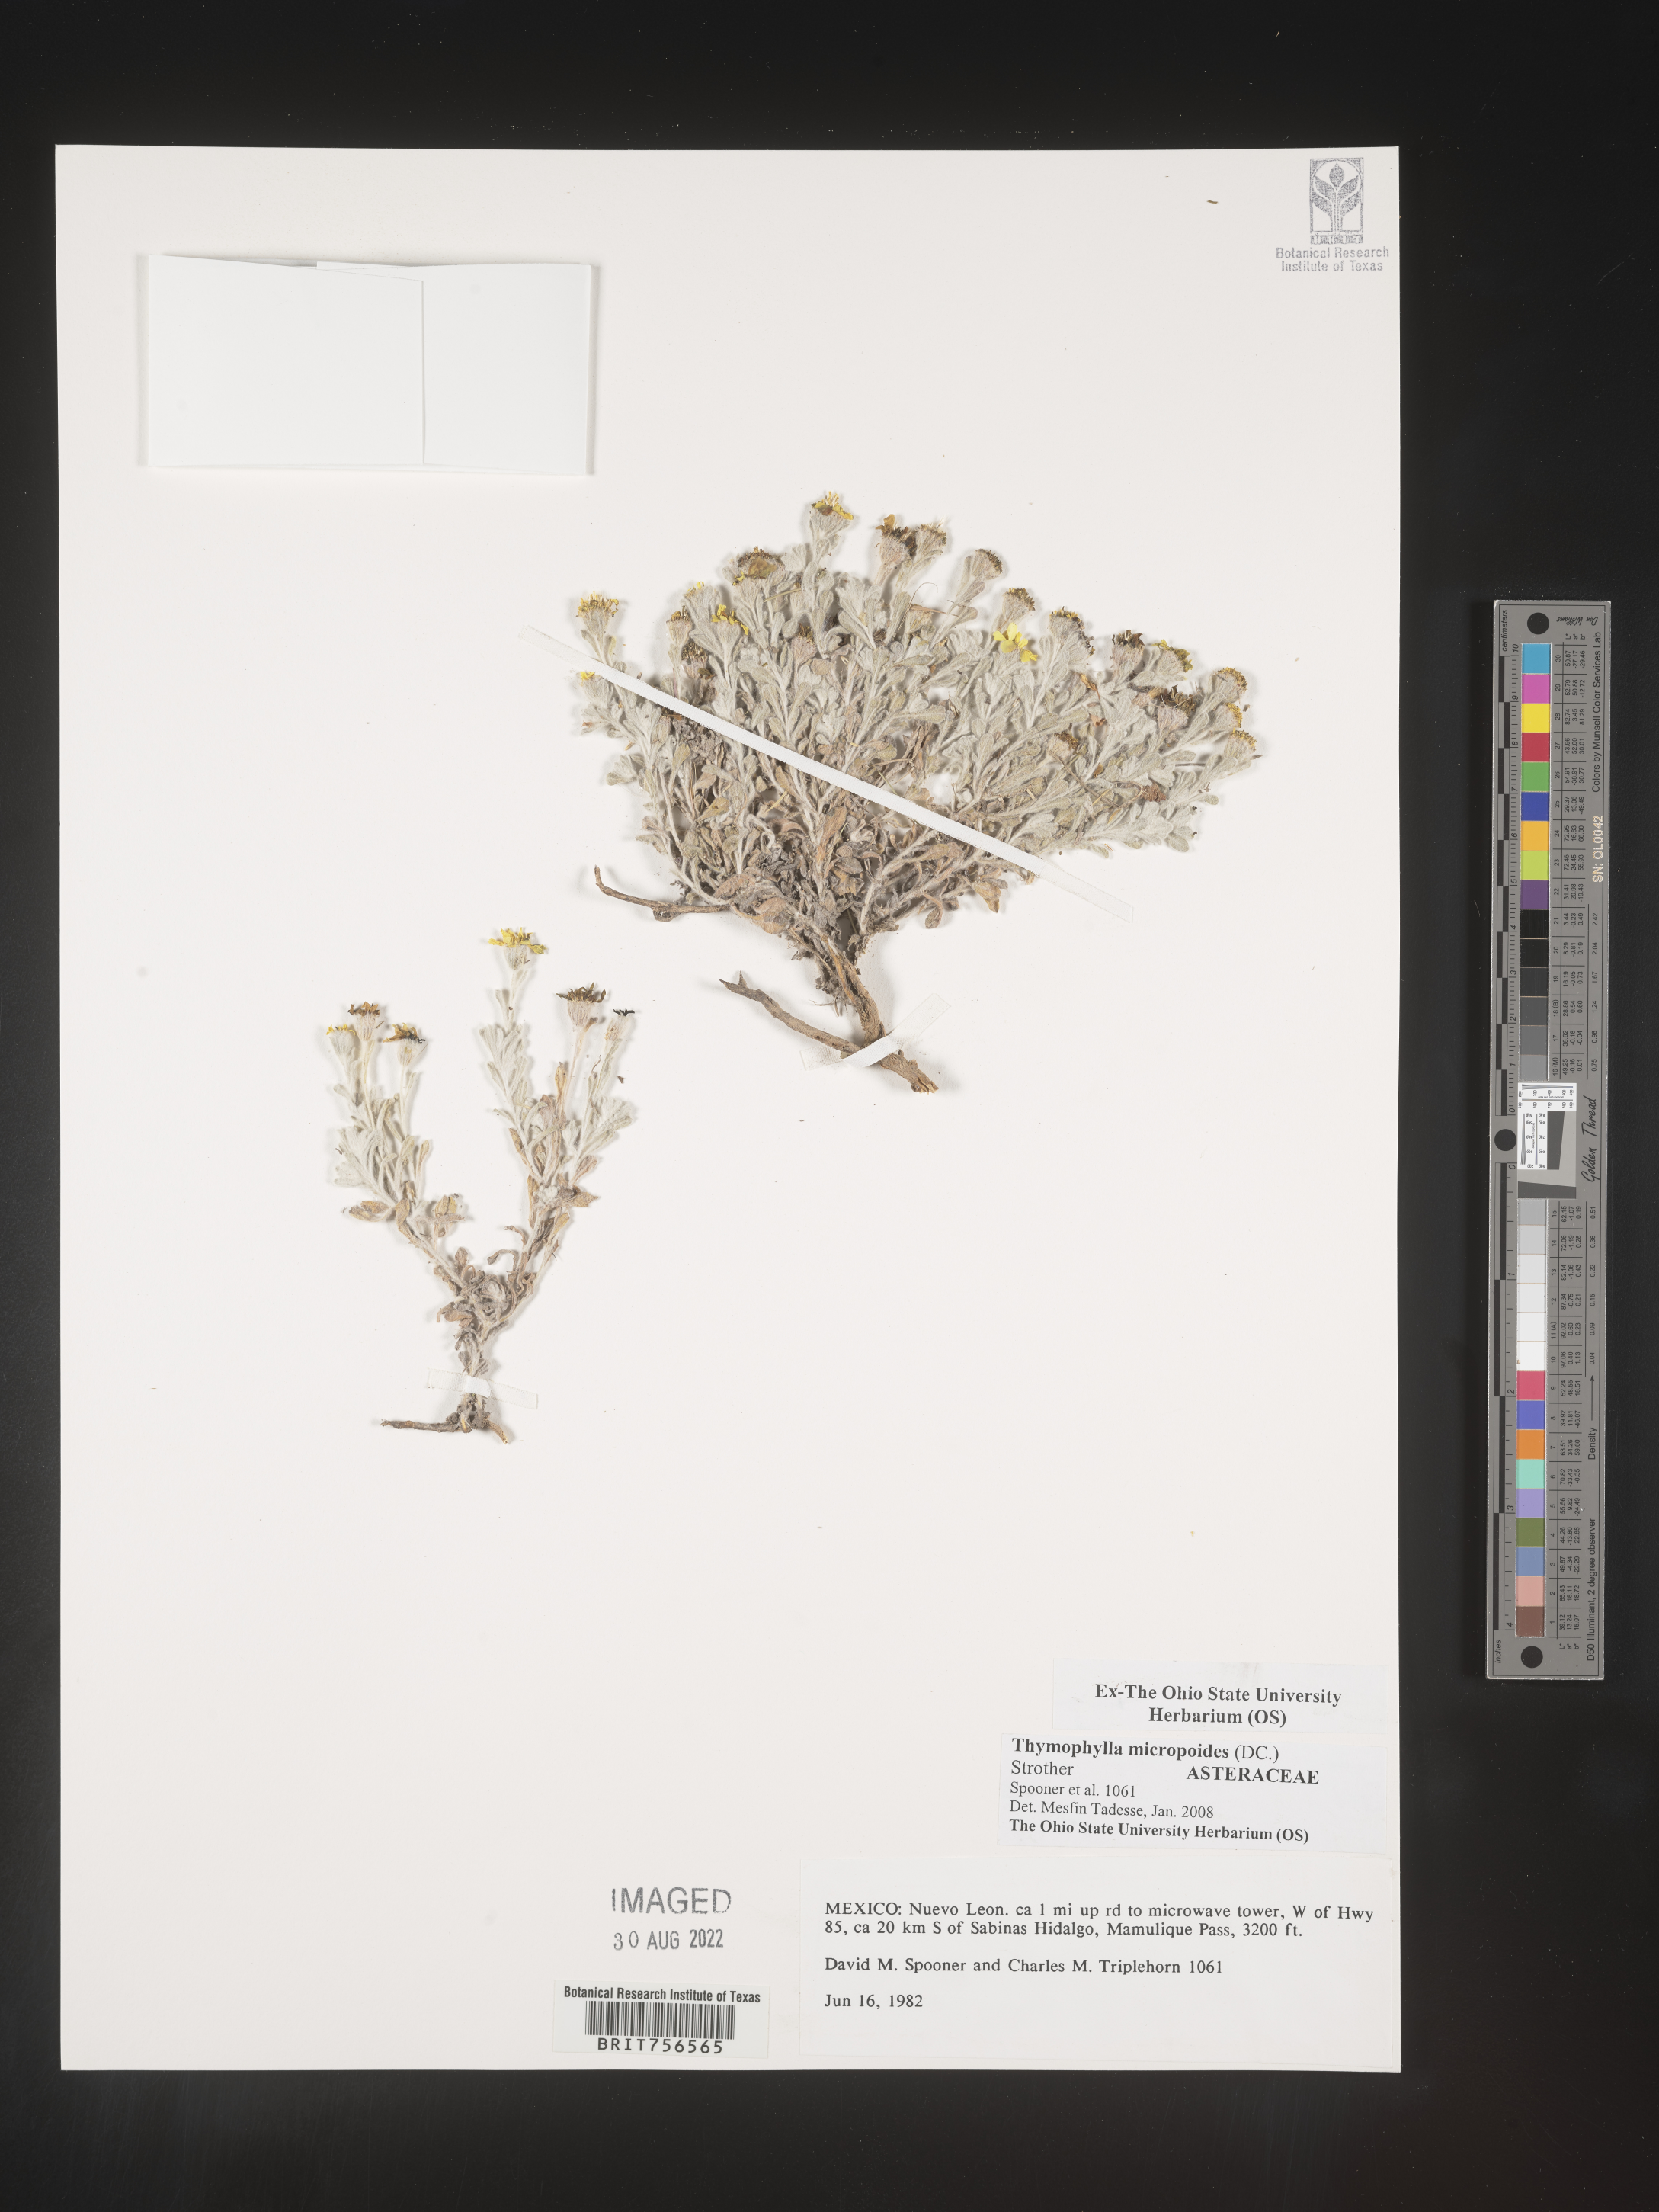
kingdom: Plantae
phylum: Tracheophyta
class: Magnoliopsida
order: Asterales
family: Asteraceae
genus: Thymophylla
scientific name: Thymophylla micropoides
